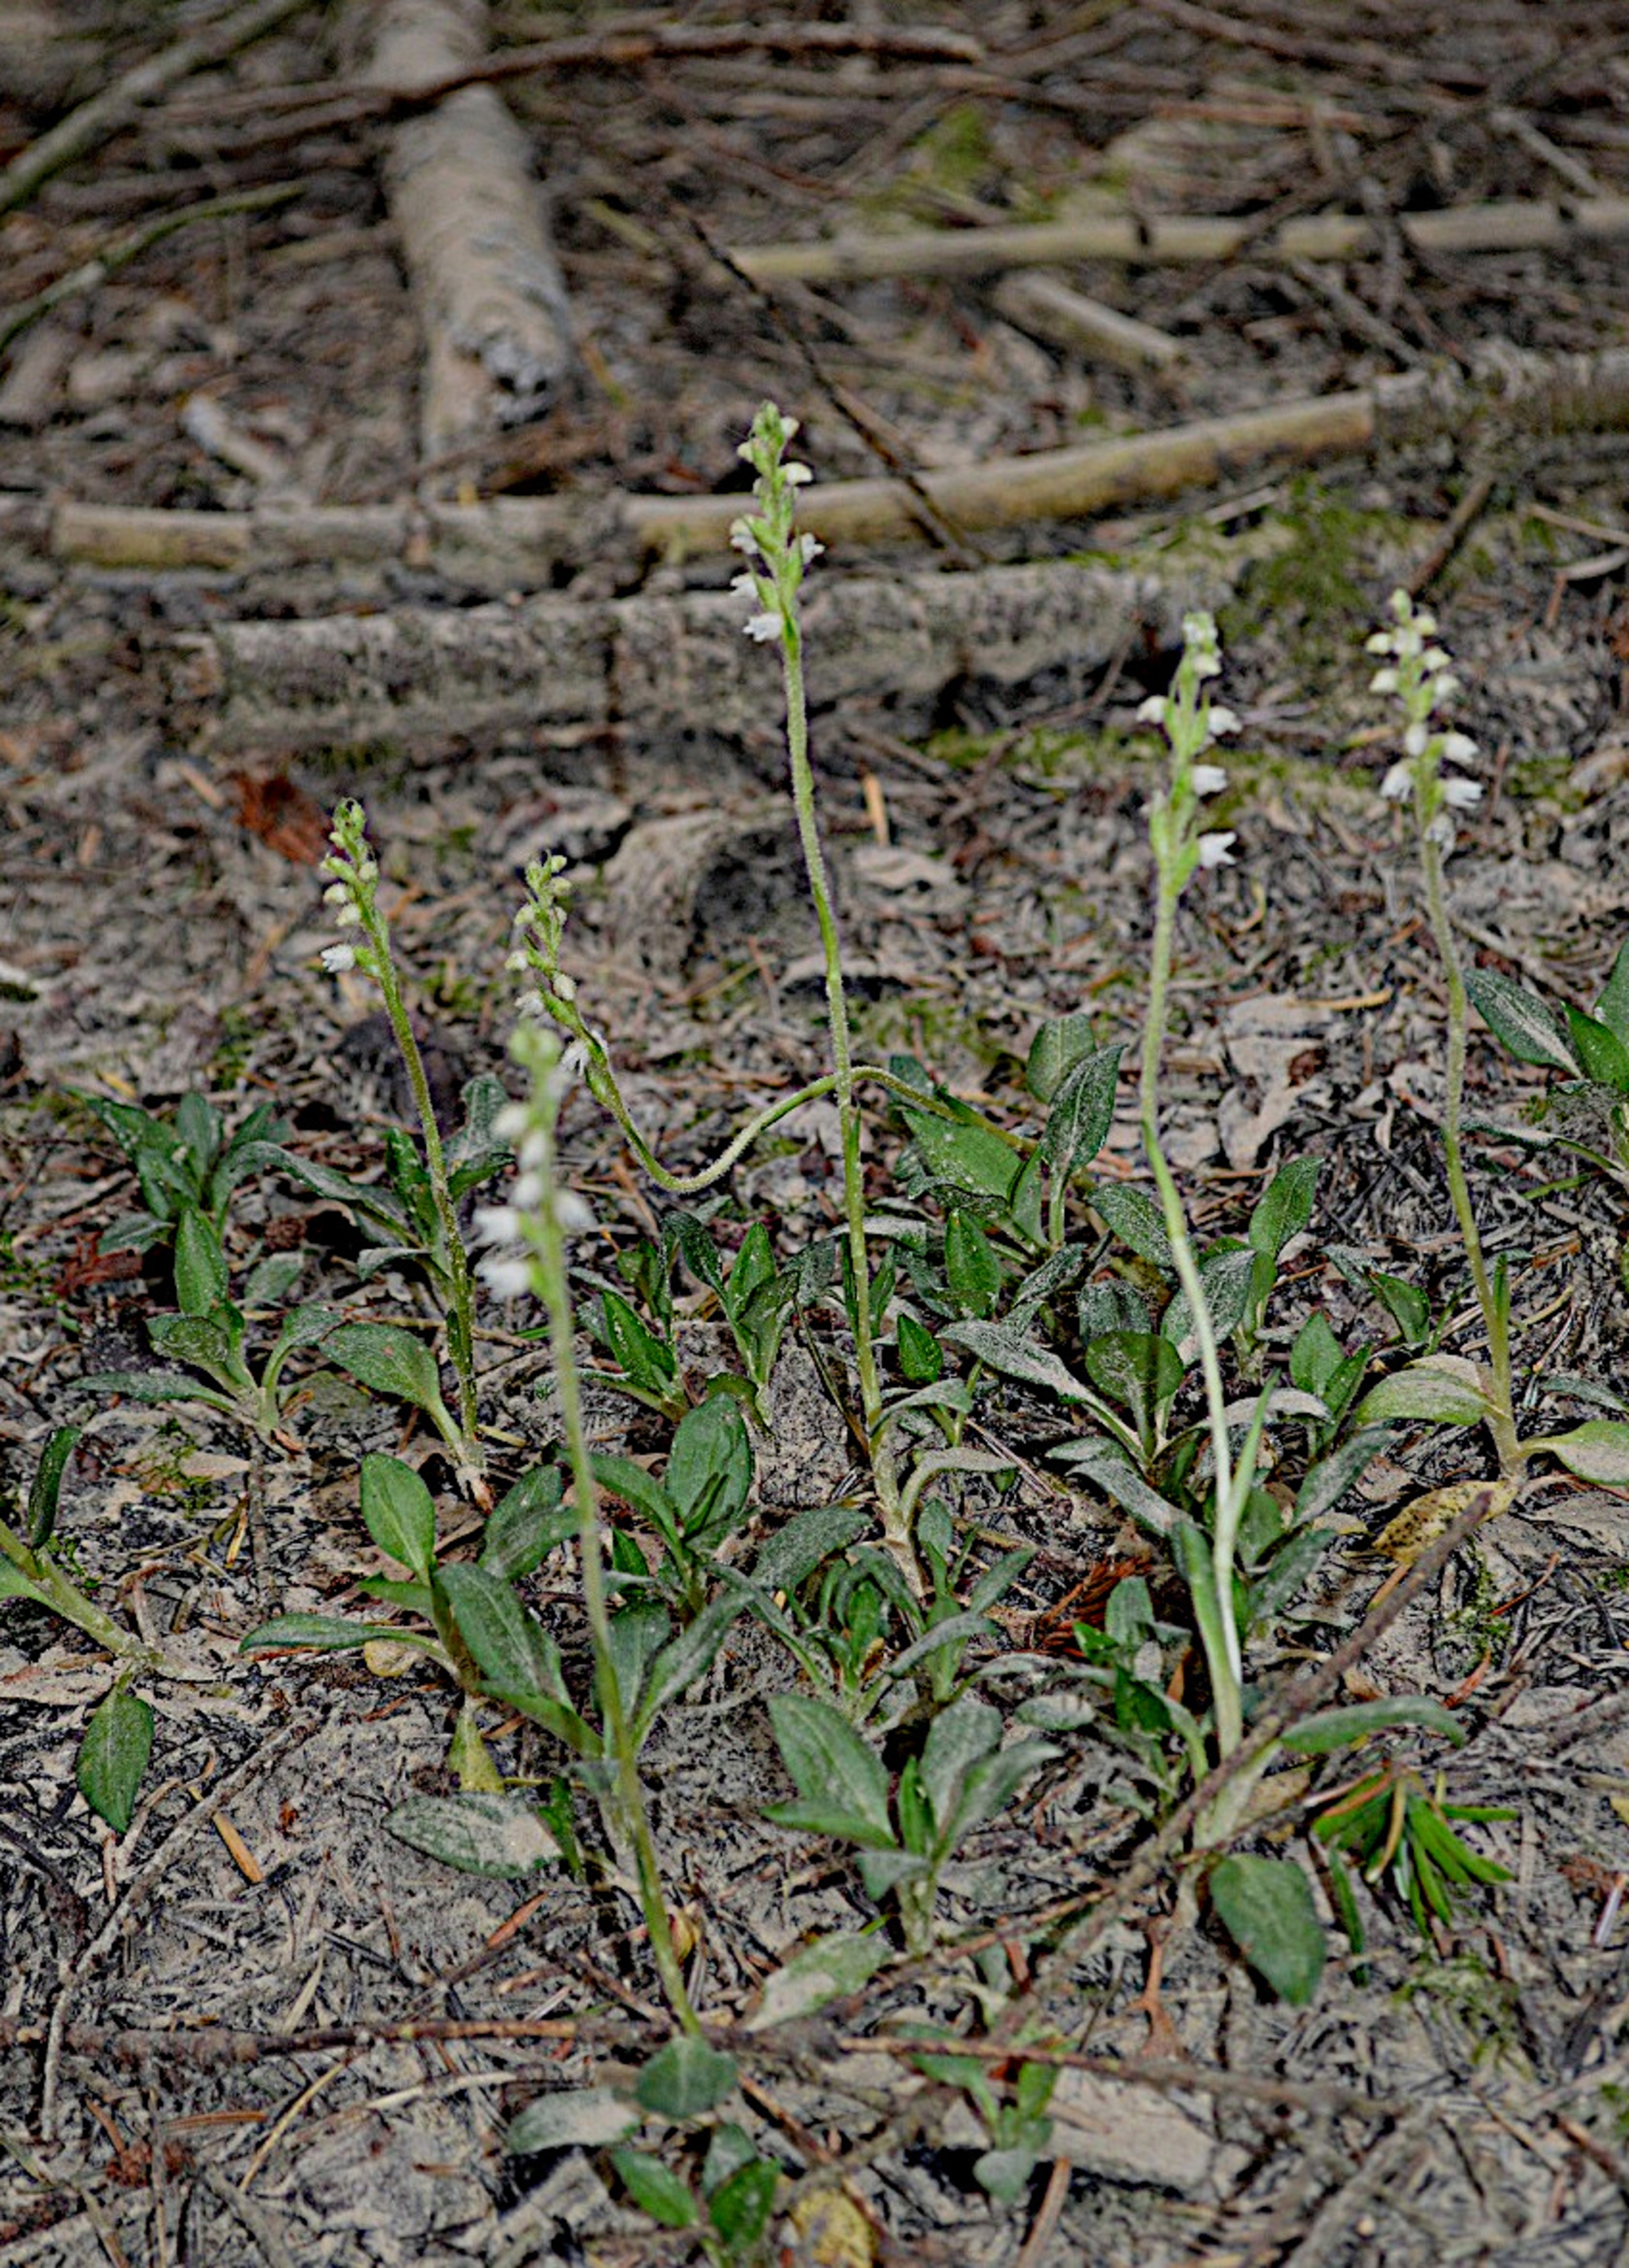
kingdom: Plantae
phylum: Tracheophyta
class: Liliopsida
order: Asparagales
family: Orchidaceae
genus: Goodyera
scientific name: Goodyera repens
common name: Knærod
